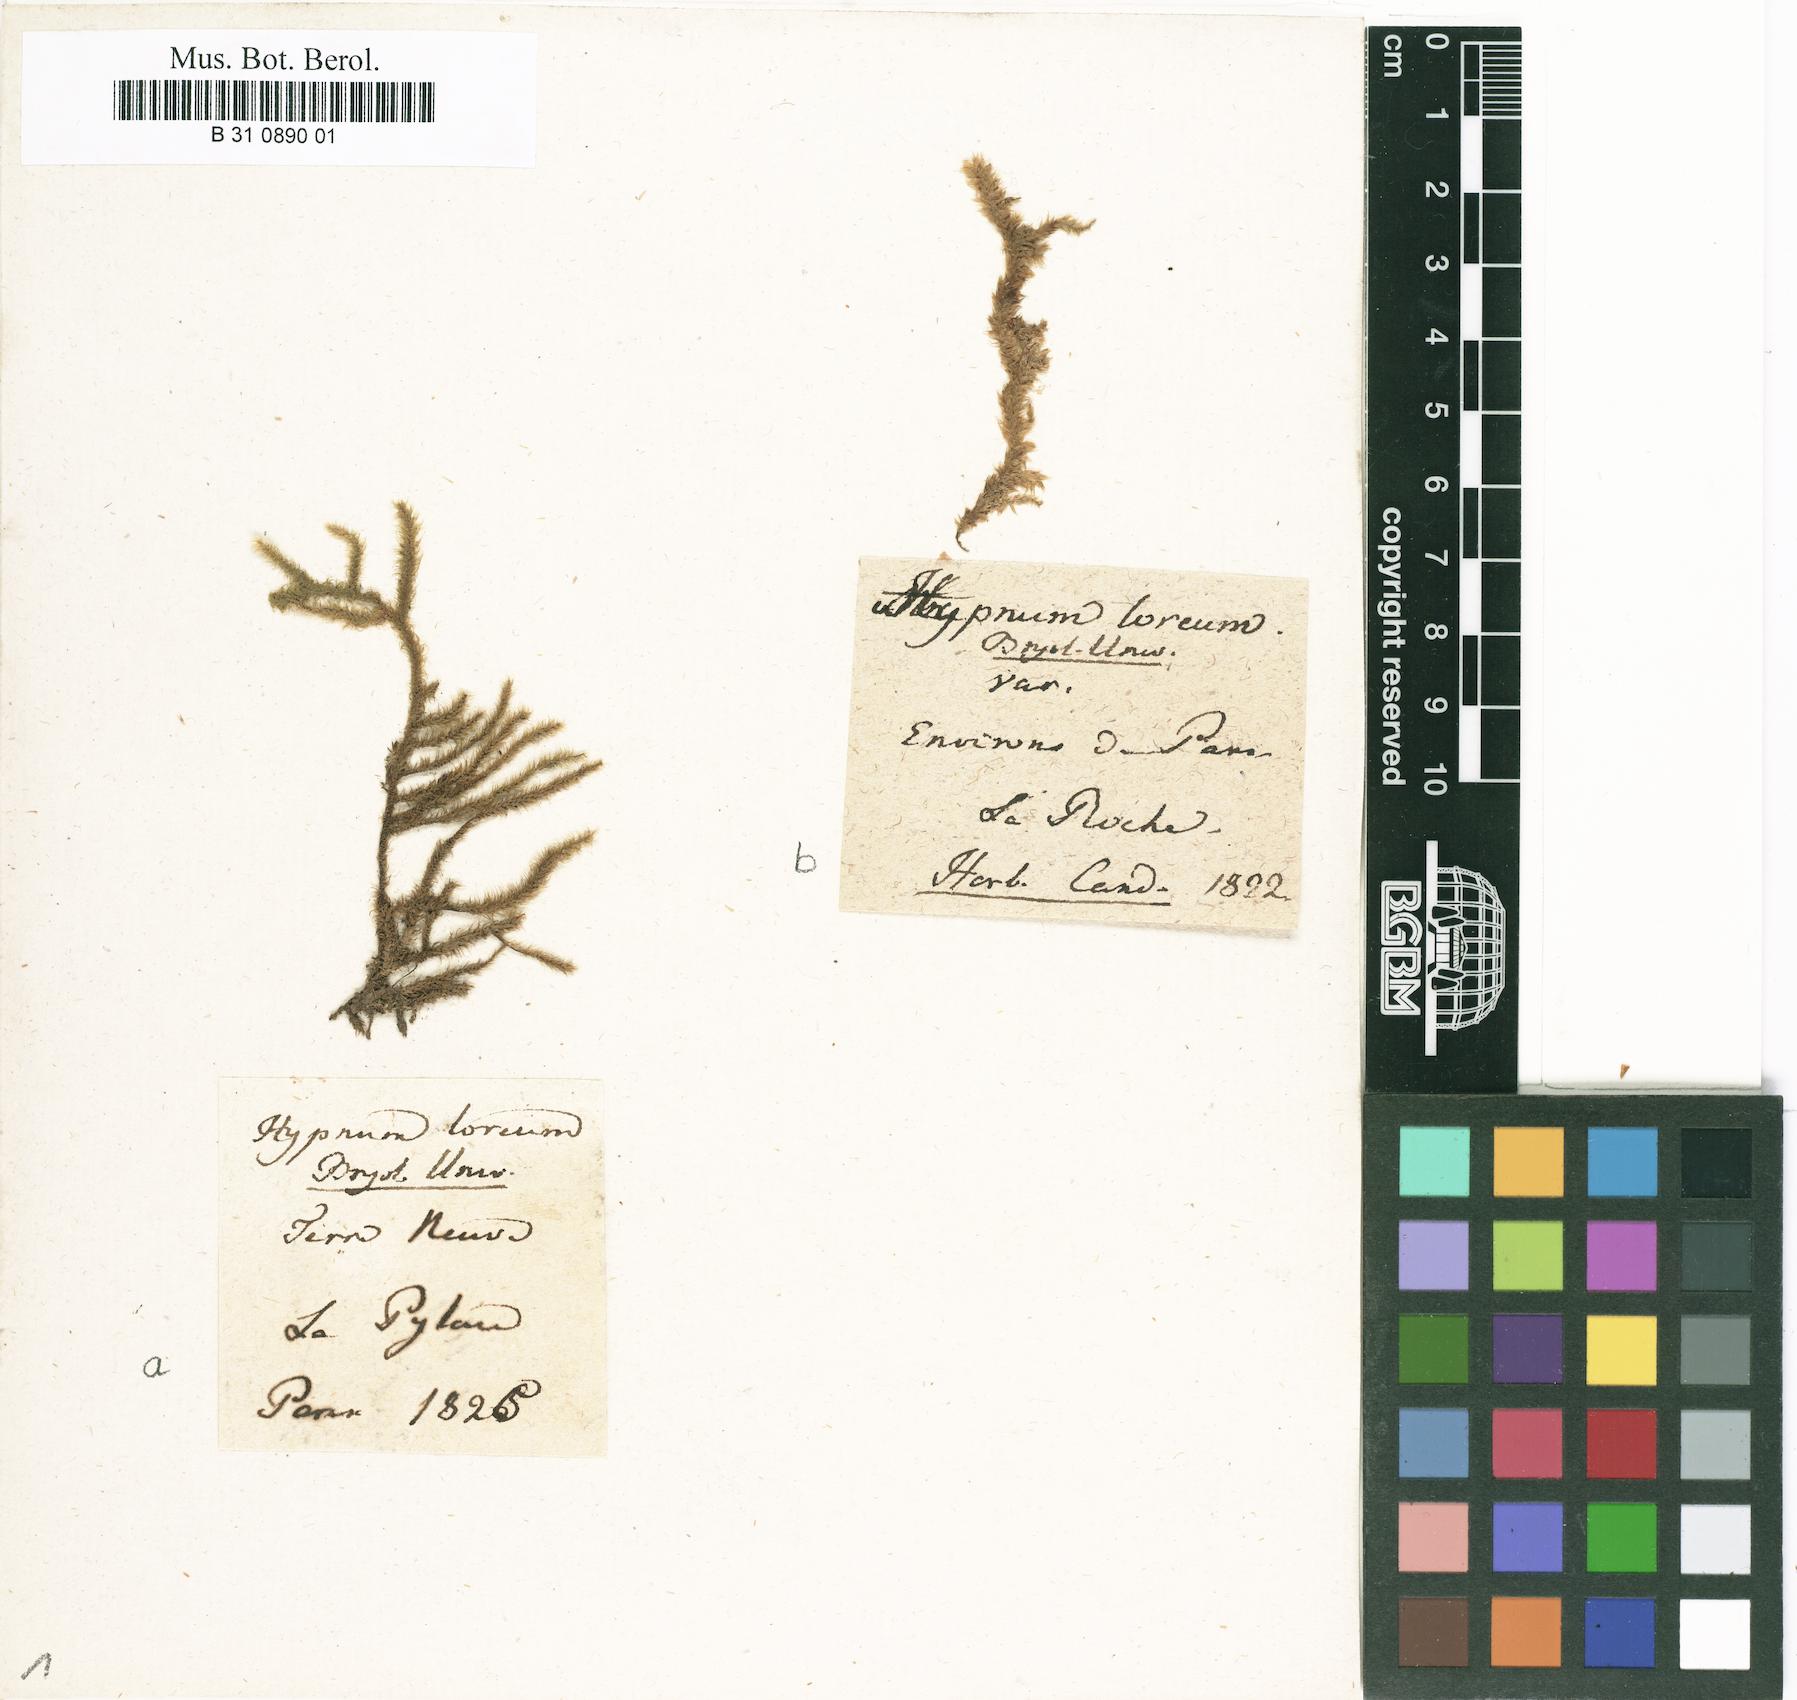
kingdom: Plantae
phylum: Bryophyta
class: Bryopsida
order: Hypnales
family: Hylocomiaceae
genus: Rhytidiadelphus
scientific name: Rhytidiadelphus loreus
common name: Lanky moss
